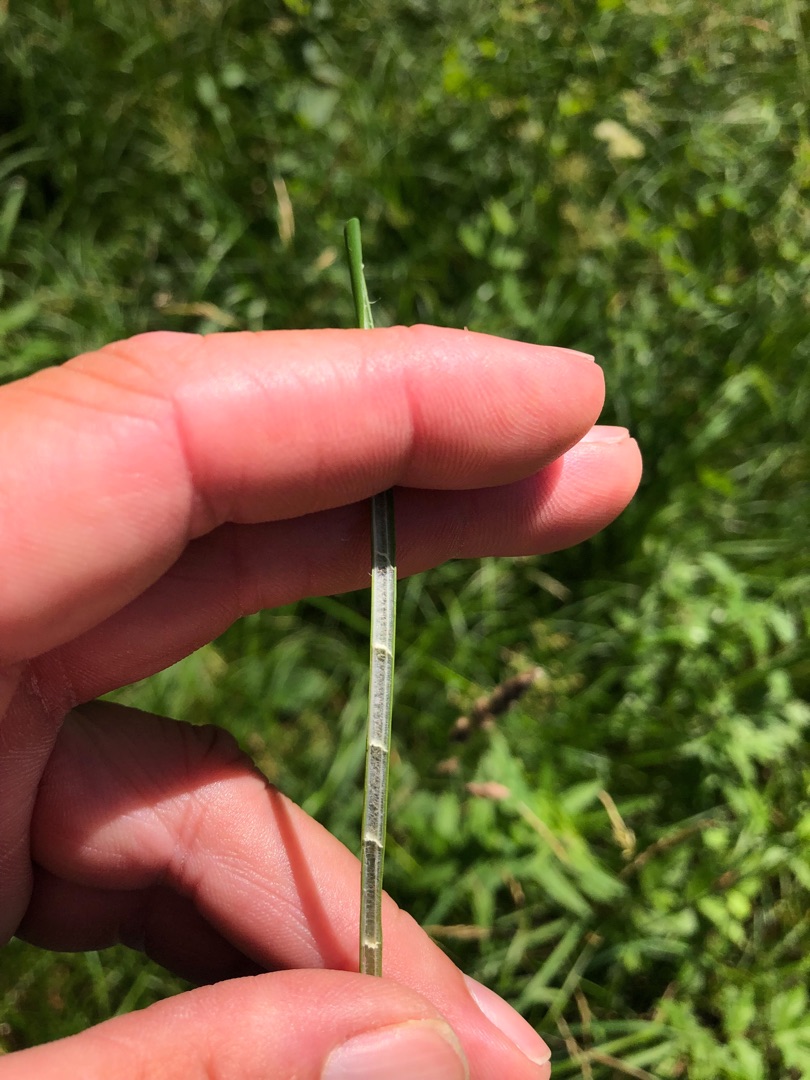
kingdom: Plantae
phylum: Tracheophyta
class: Liliopsida
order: Poales
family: Juncaceae
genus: Juncus
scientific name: Juncus subnodulosus
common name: Butblomstret siv
